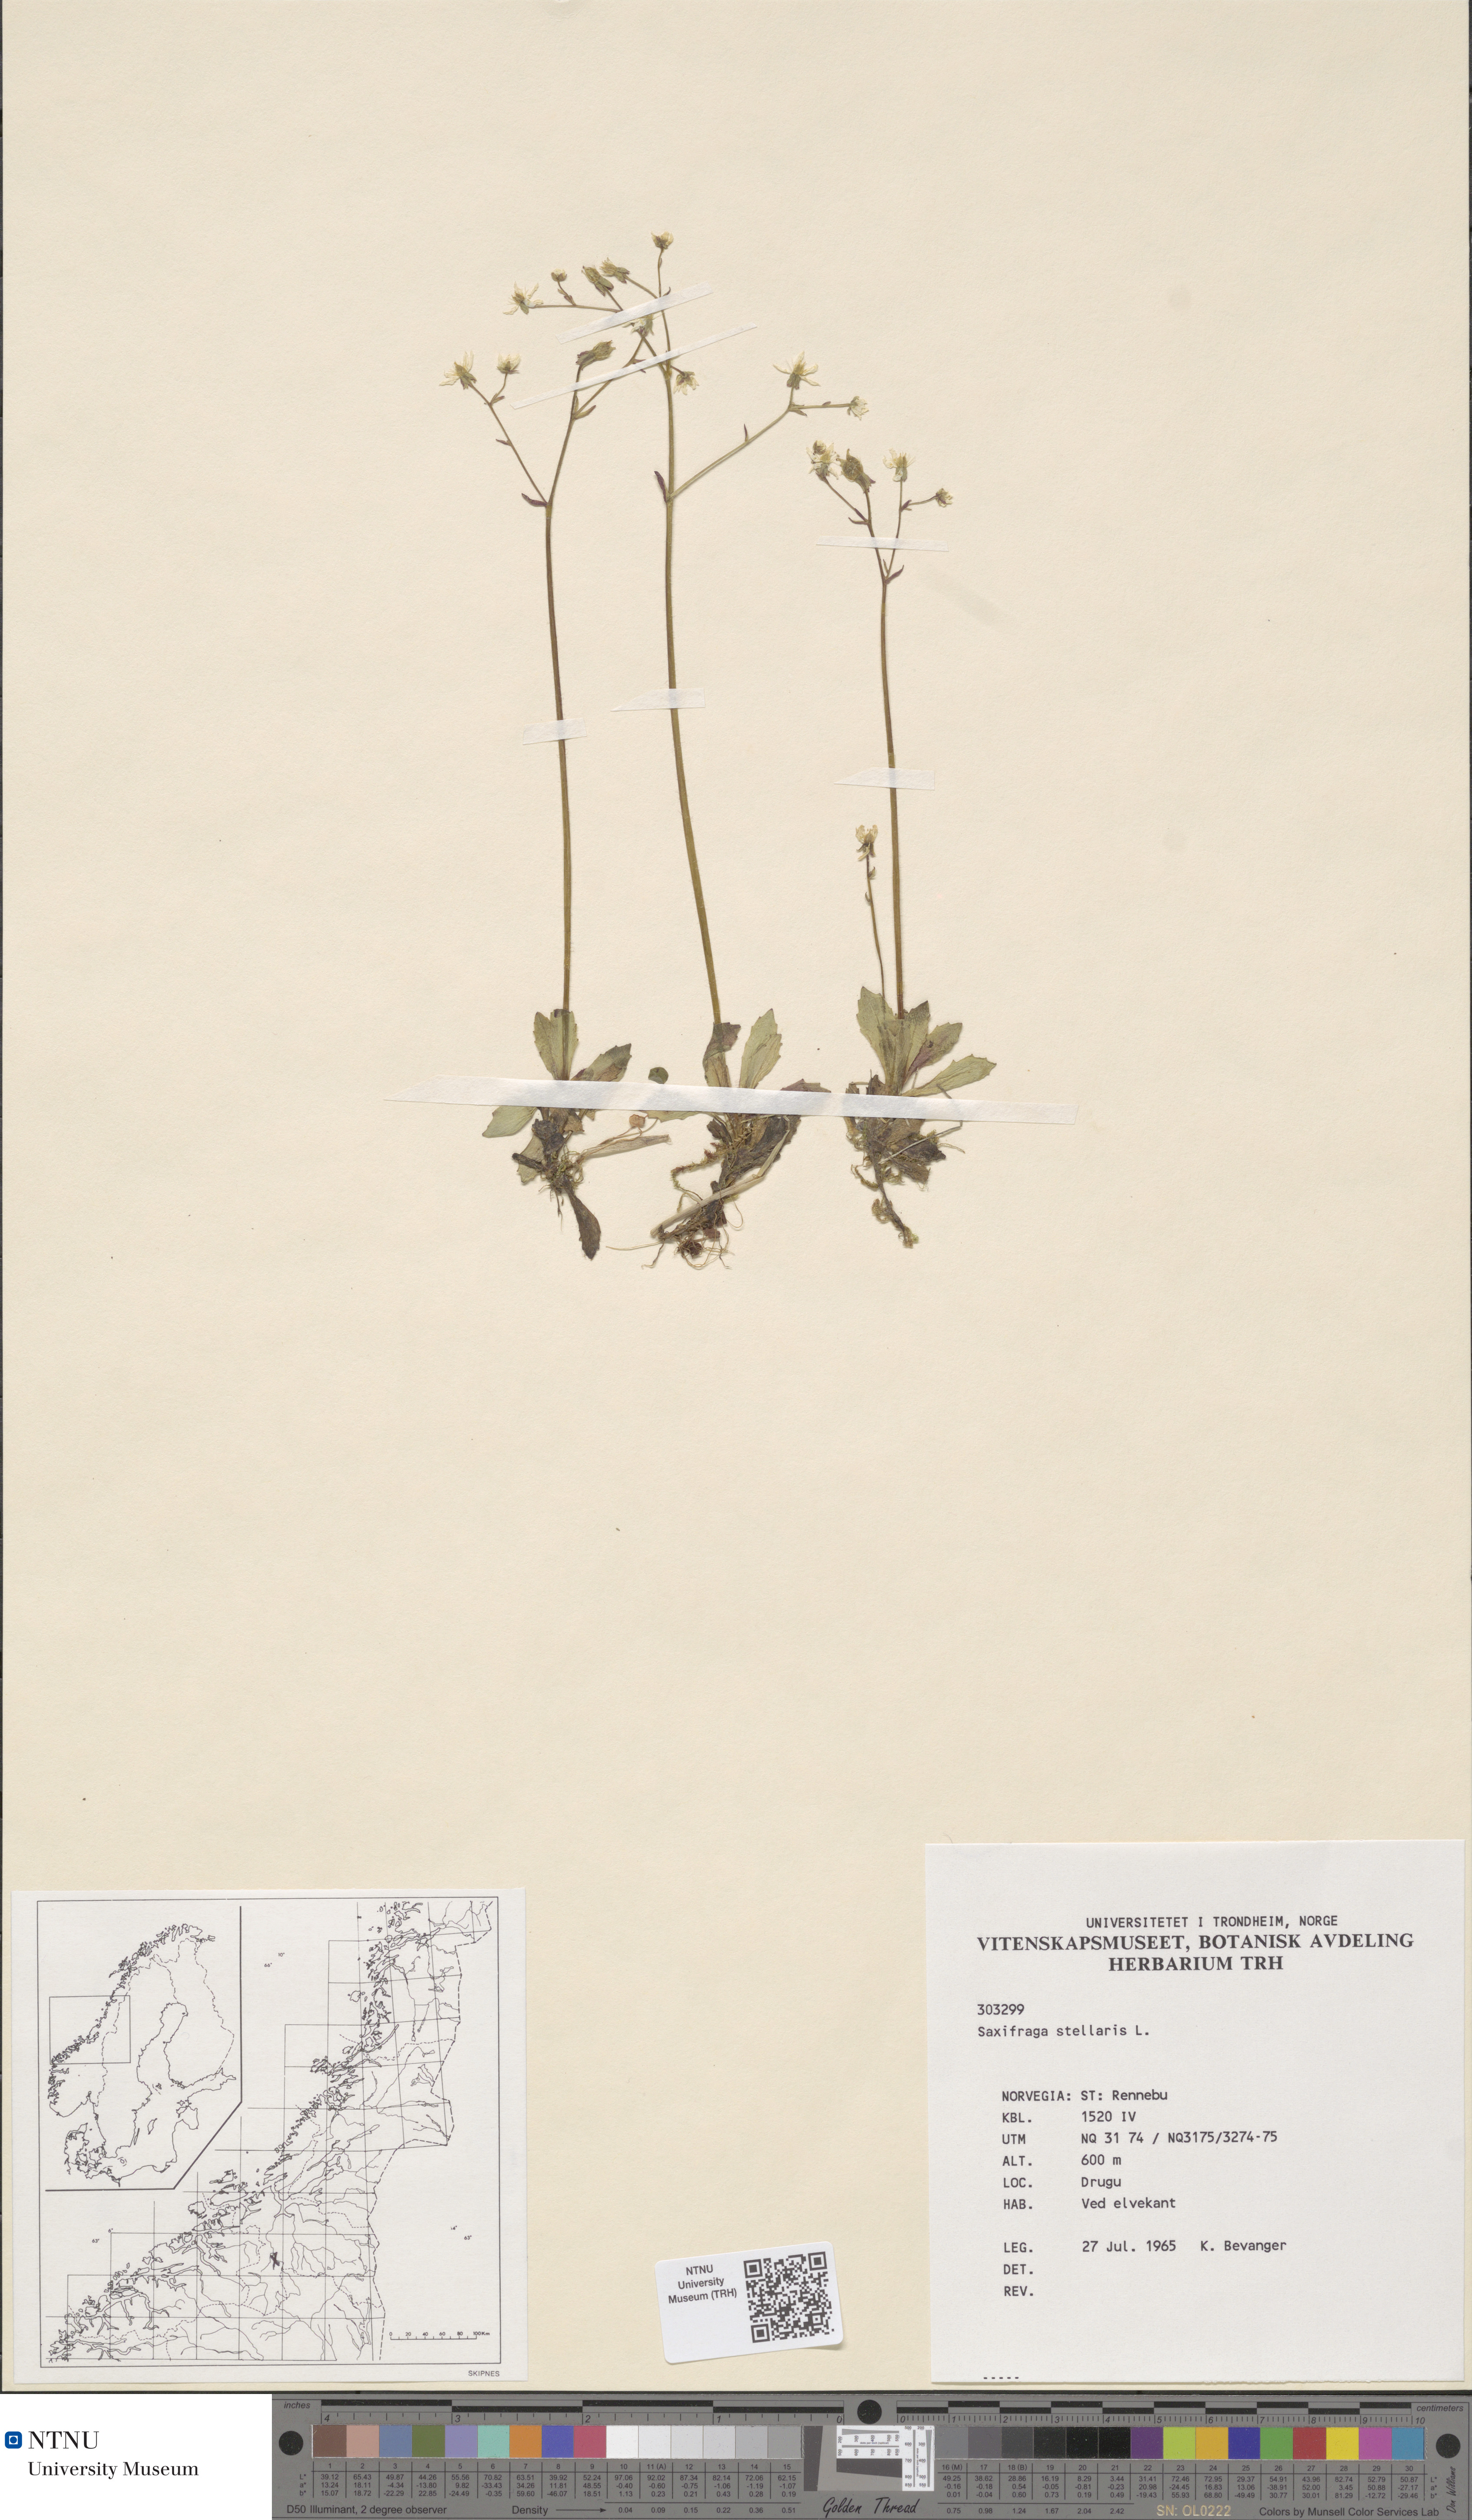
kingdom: Plantae
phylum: Tracheophyta
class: Magnoliopsida
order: Saxifragales
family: Saxifragaceae
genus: Micranthes
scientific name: Micranthes stellaris
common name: Starry saxifrage
